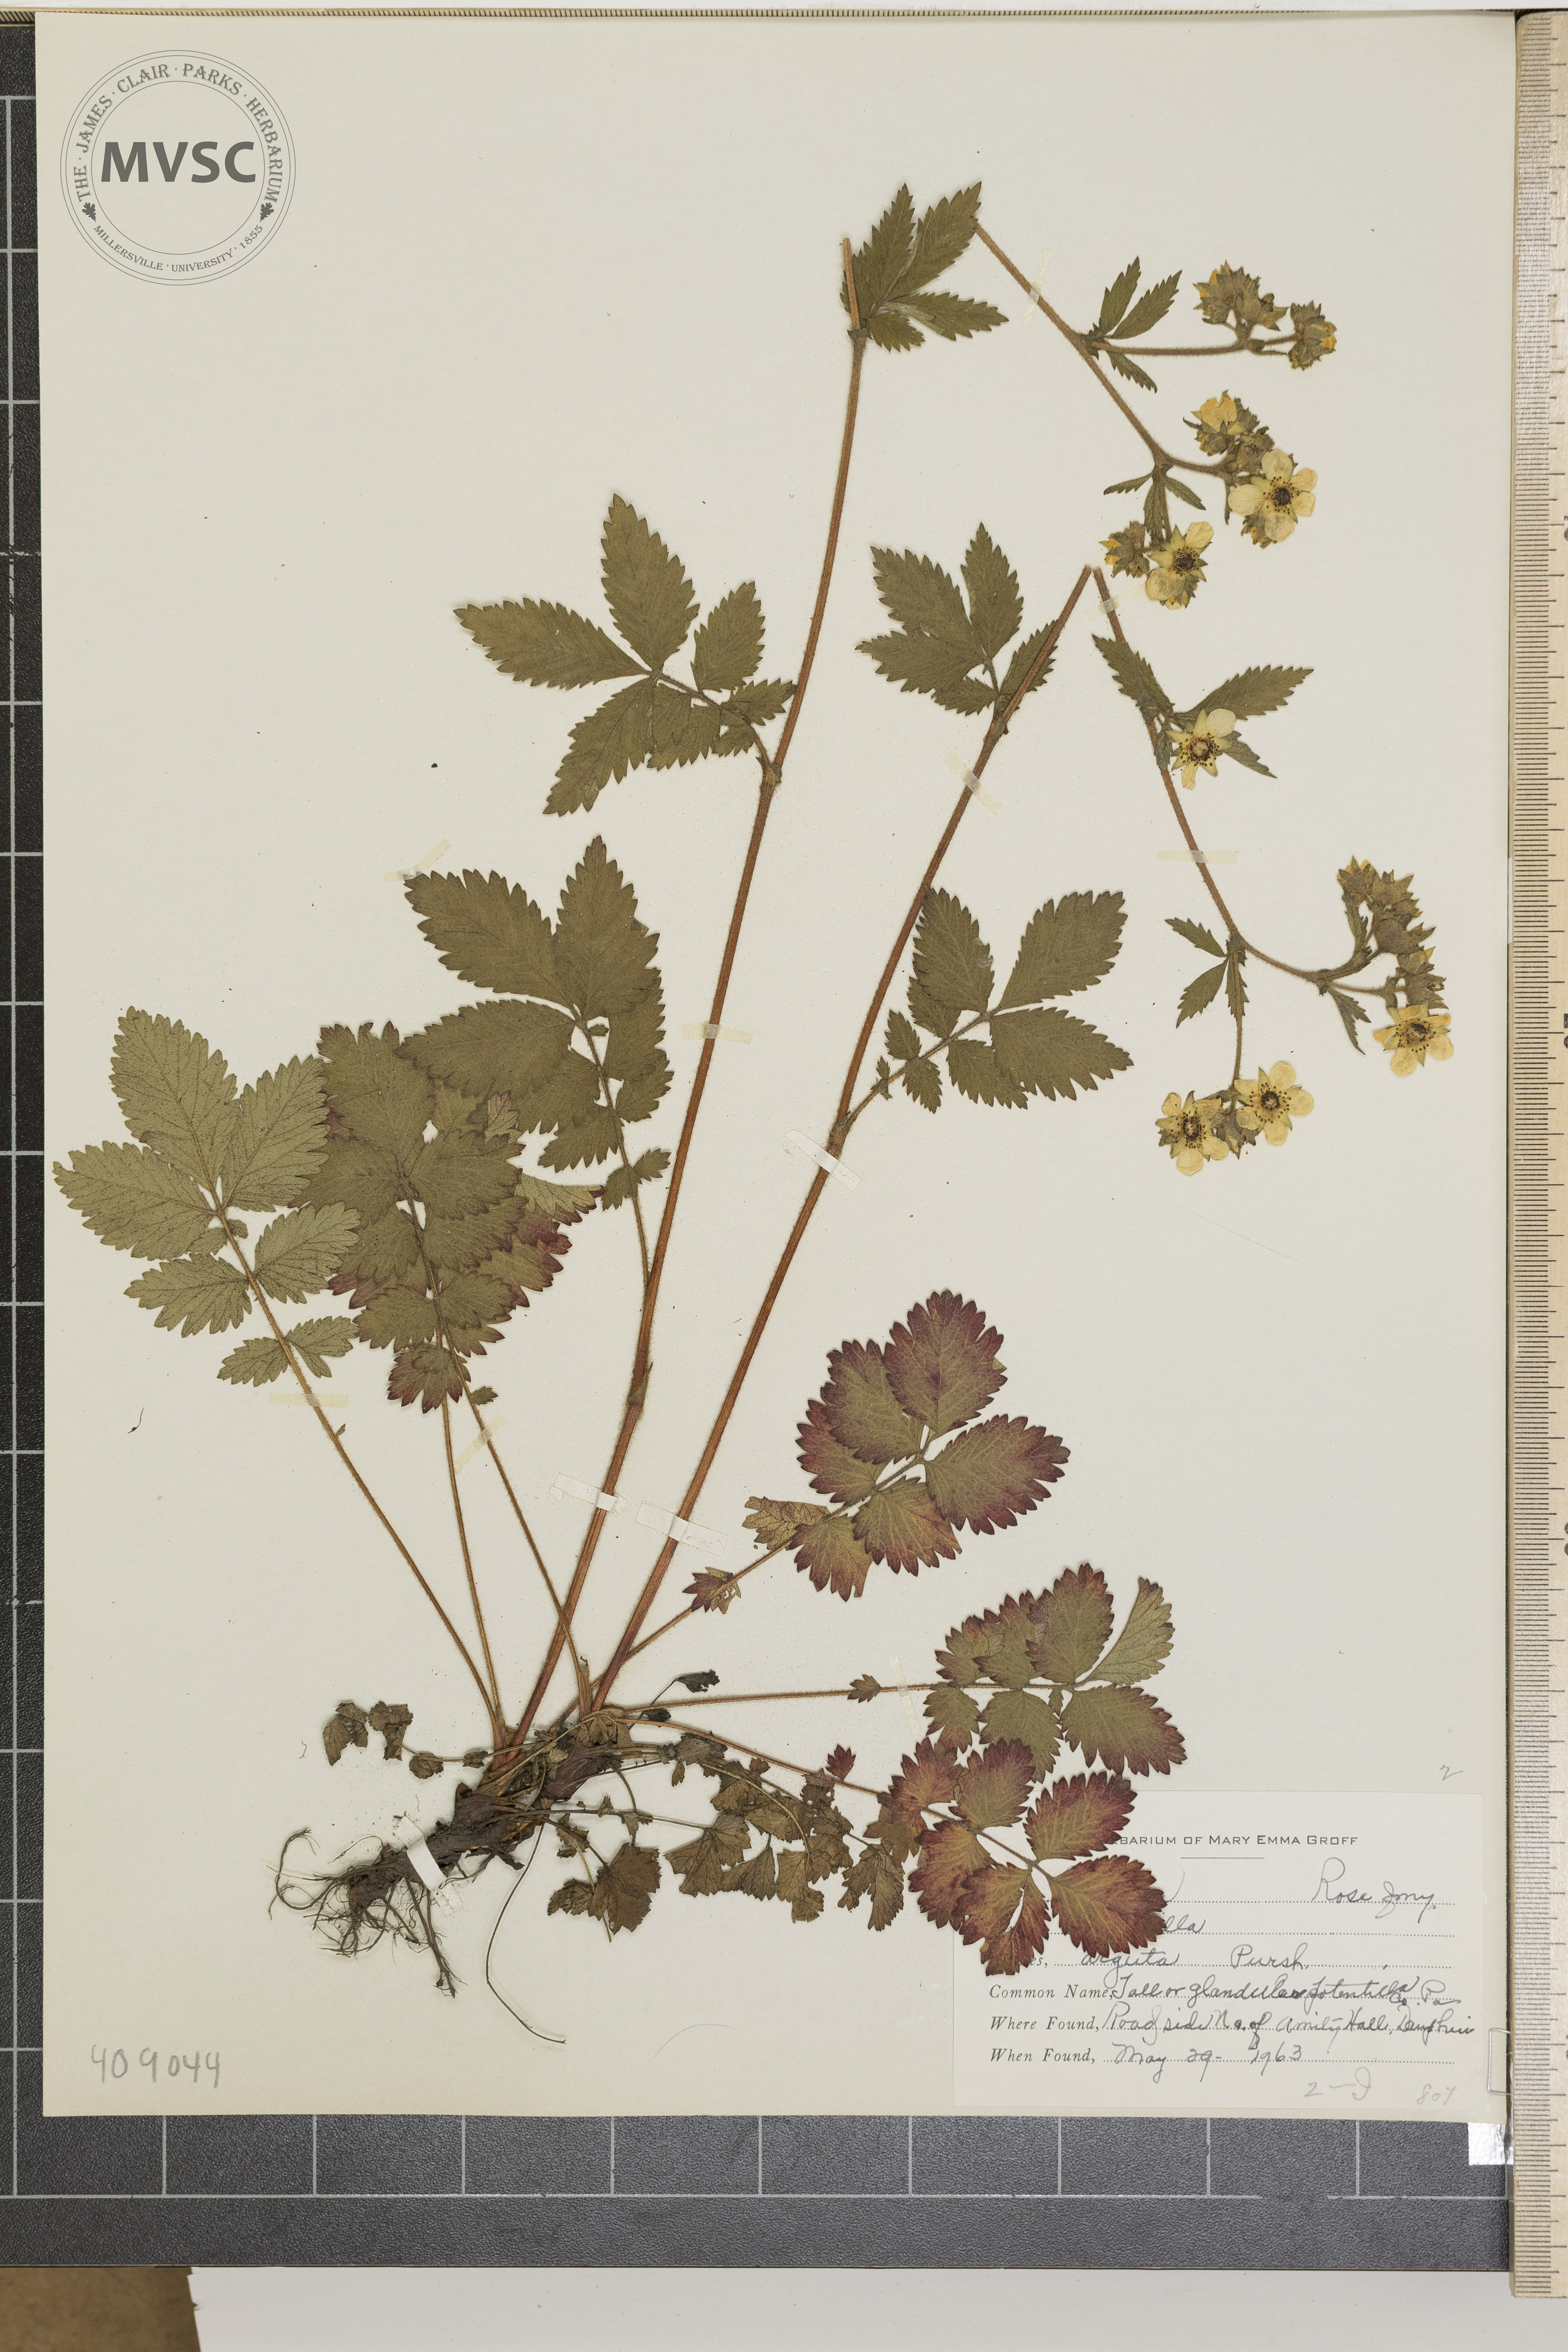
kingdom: Plantae
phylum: Tracheophyta
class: Magnoliopsida
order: Rosales
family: Rosaceae
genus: Drymocallis
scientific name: Drymocallis
